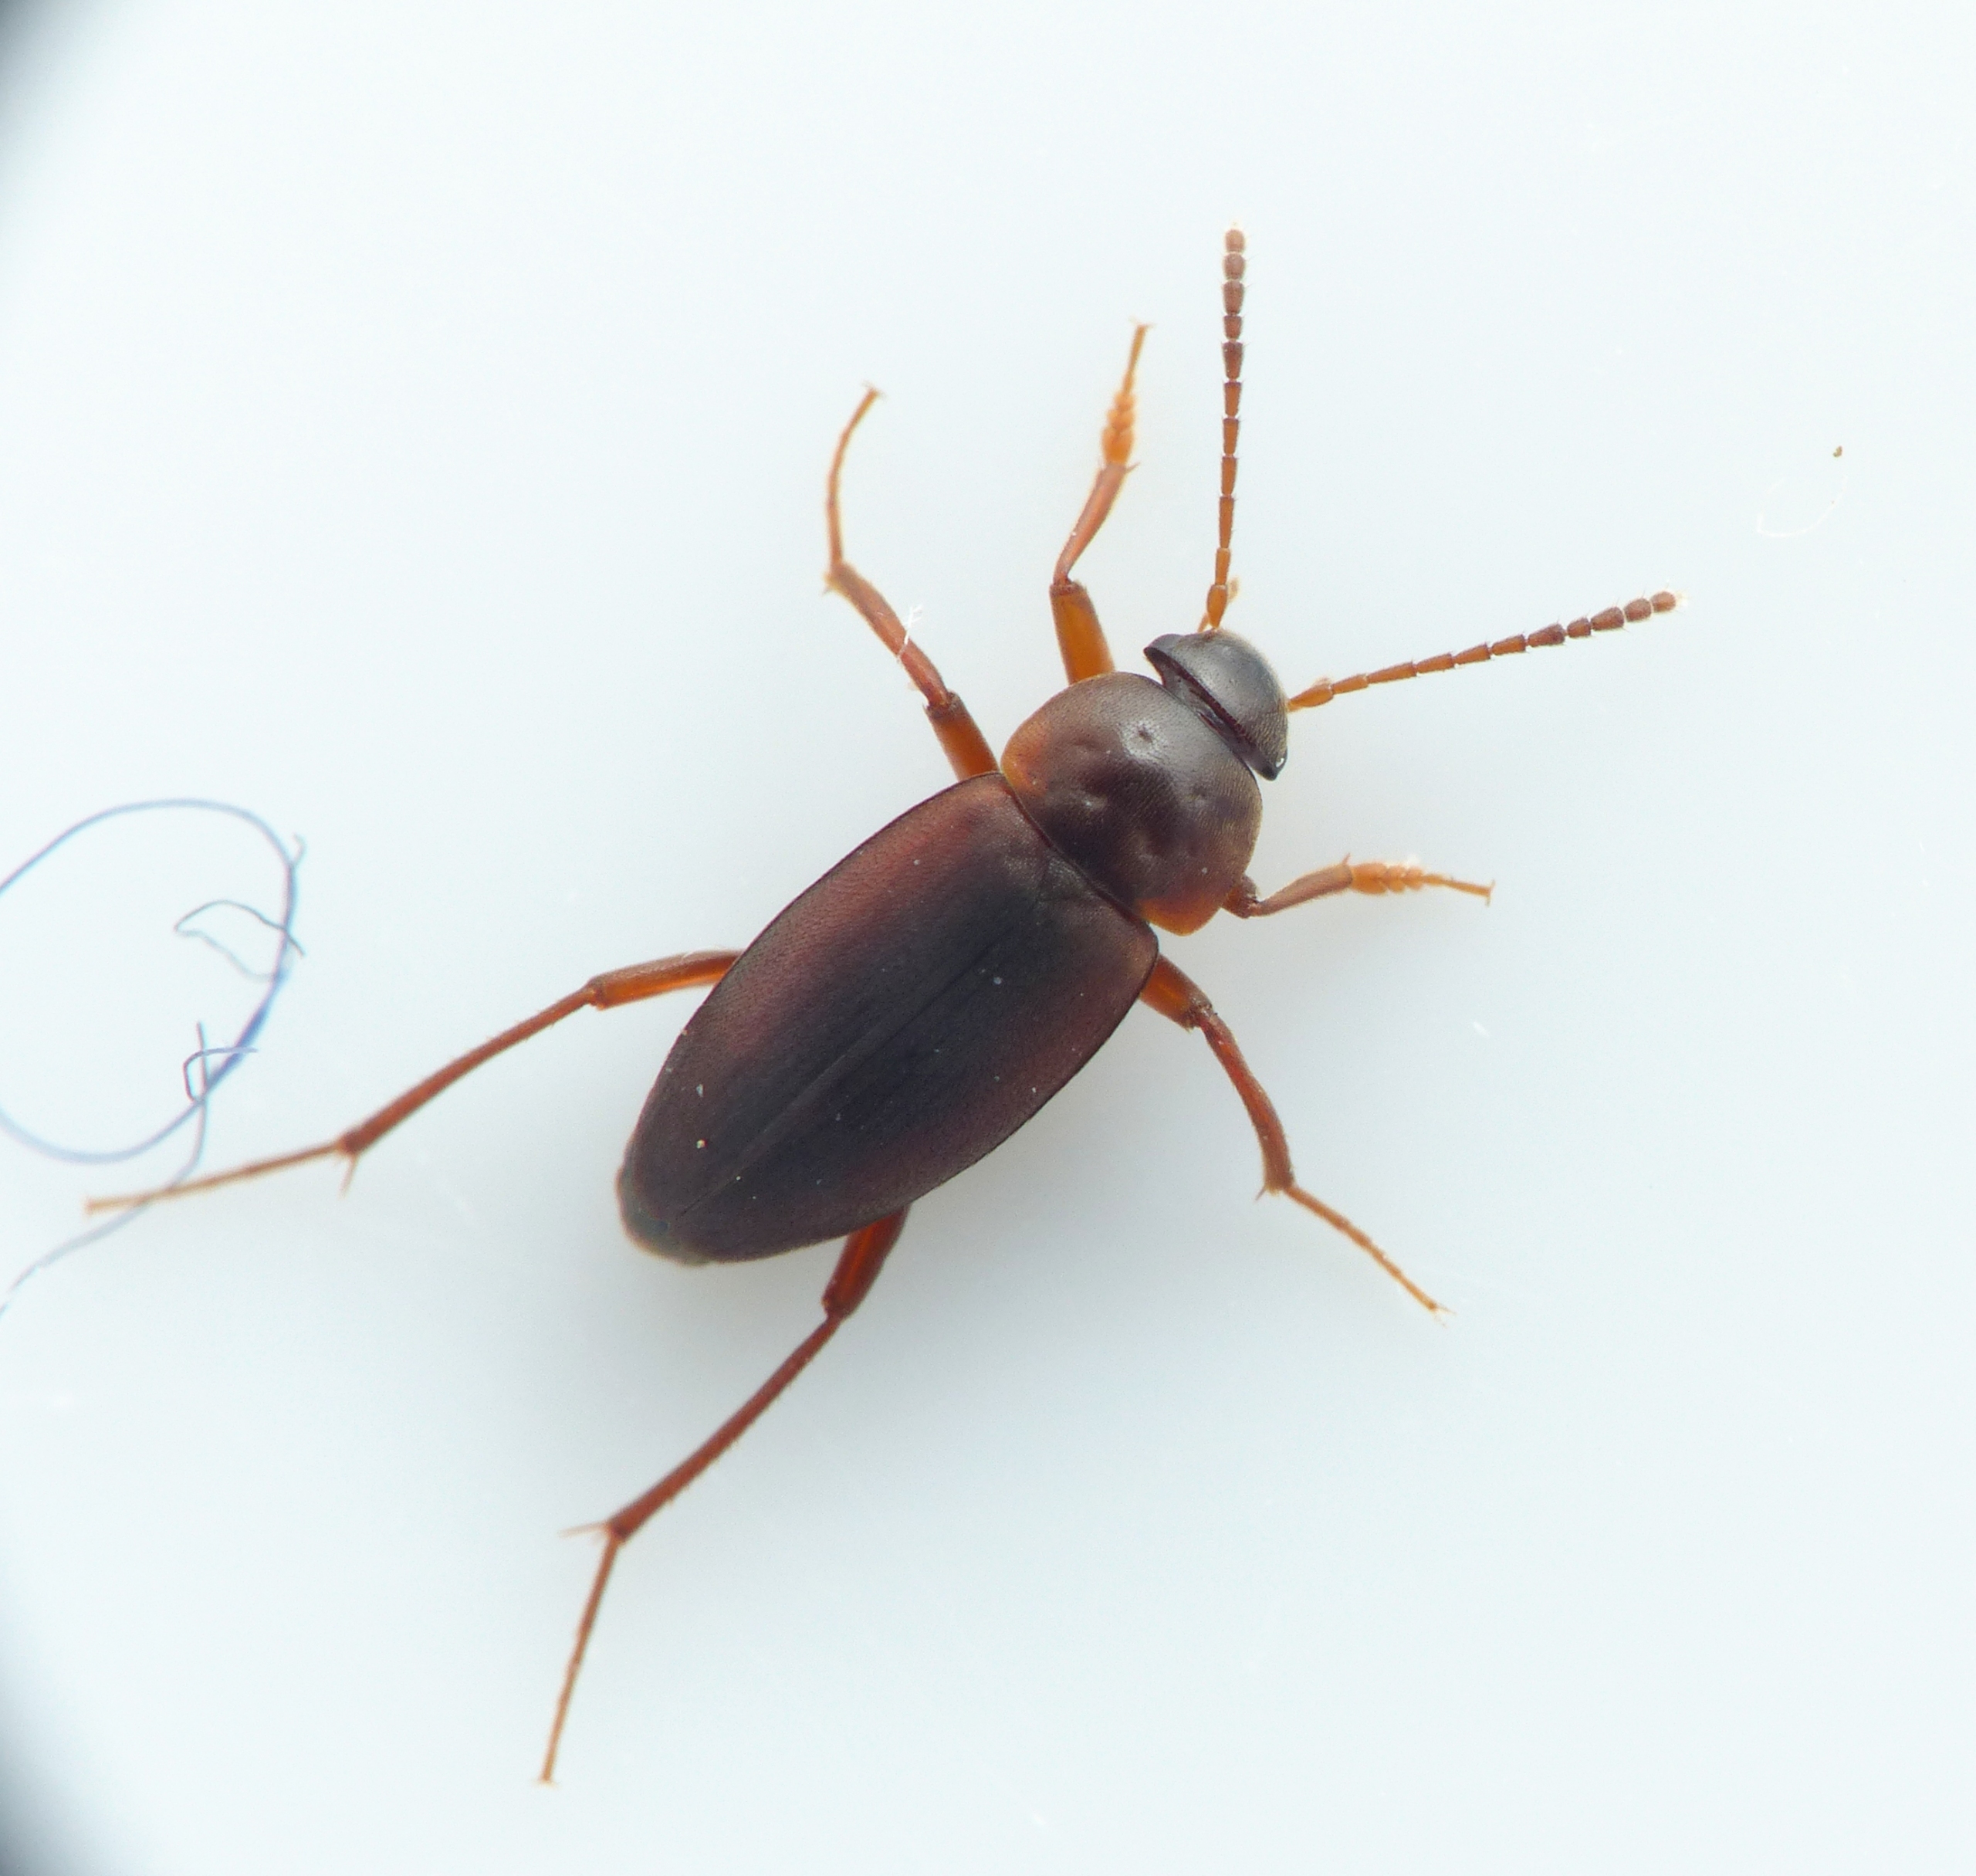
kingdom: Animalia
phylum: Arthropoda
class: Insecta
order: Coleoptera
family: Leiodidae
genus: Choleva
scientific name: Choleva agilis
